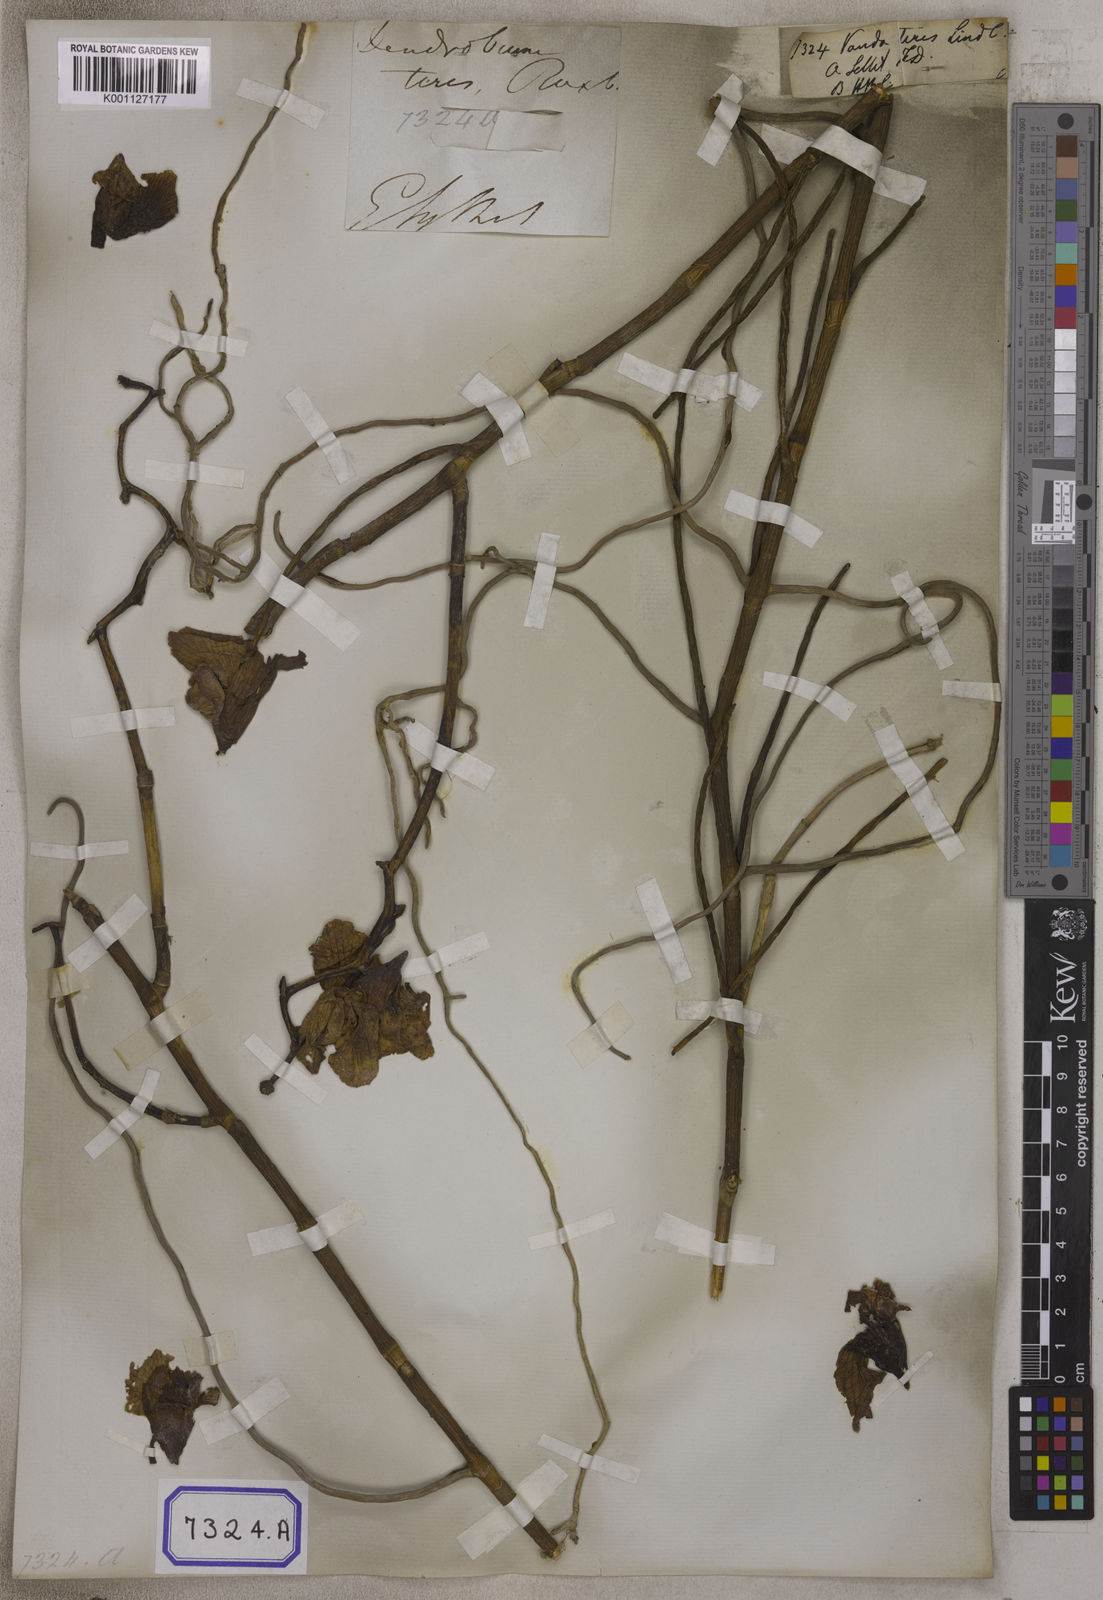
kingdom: Plantae
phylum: Tracheophyta
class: Liliopsida
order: Asparagales
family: Orchidaceae
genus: Papilionanthe
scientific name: Papilionanthe teres
